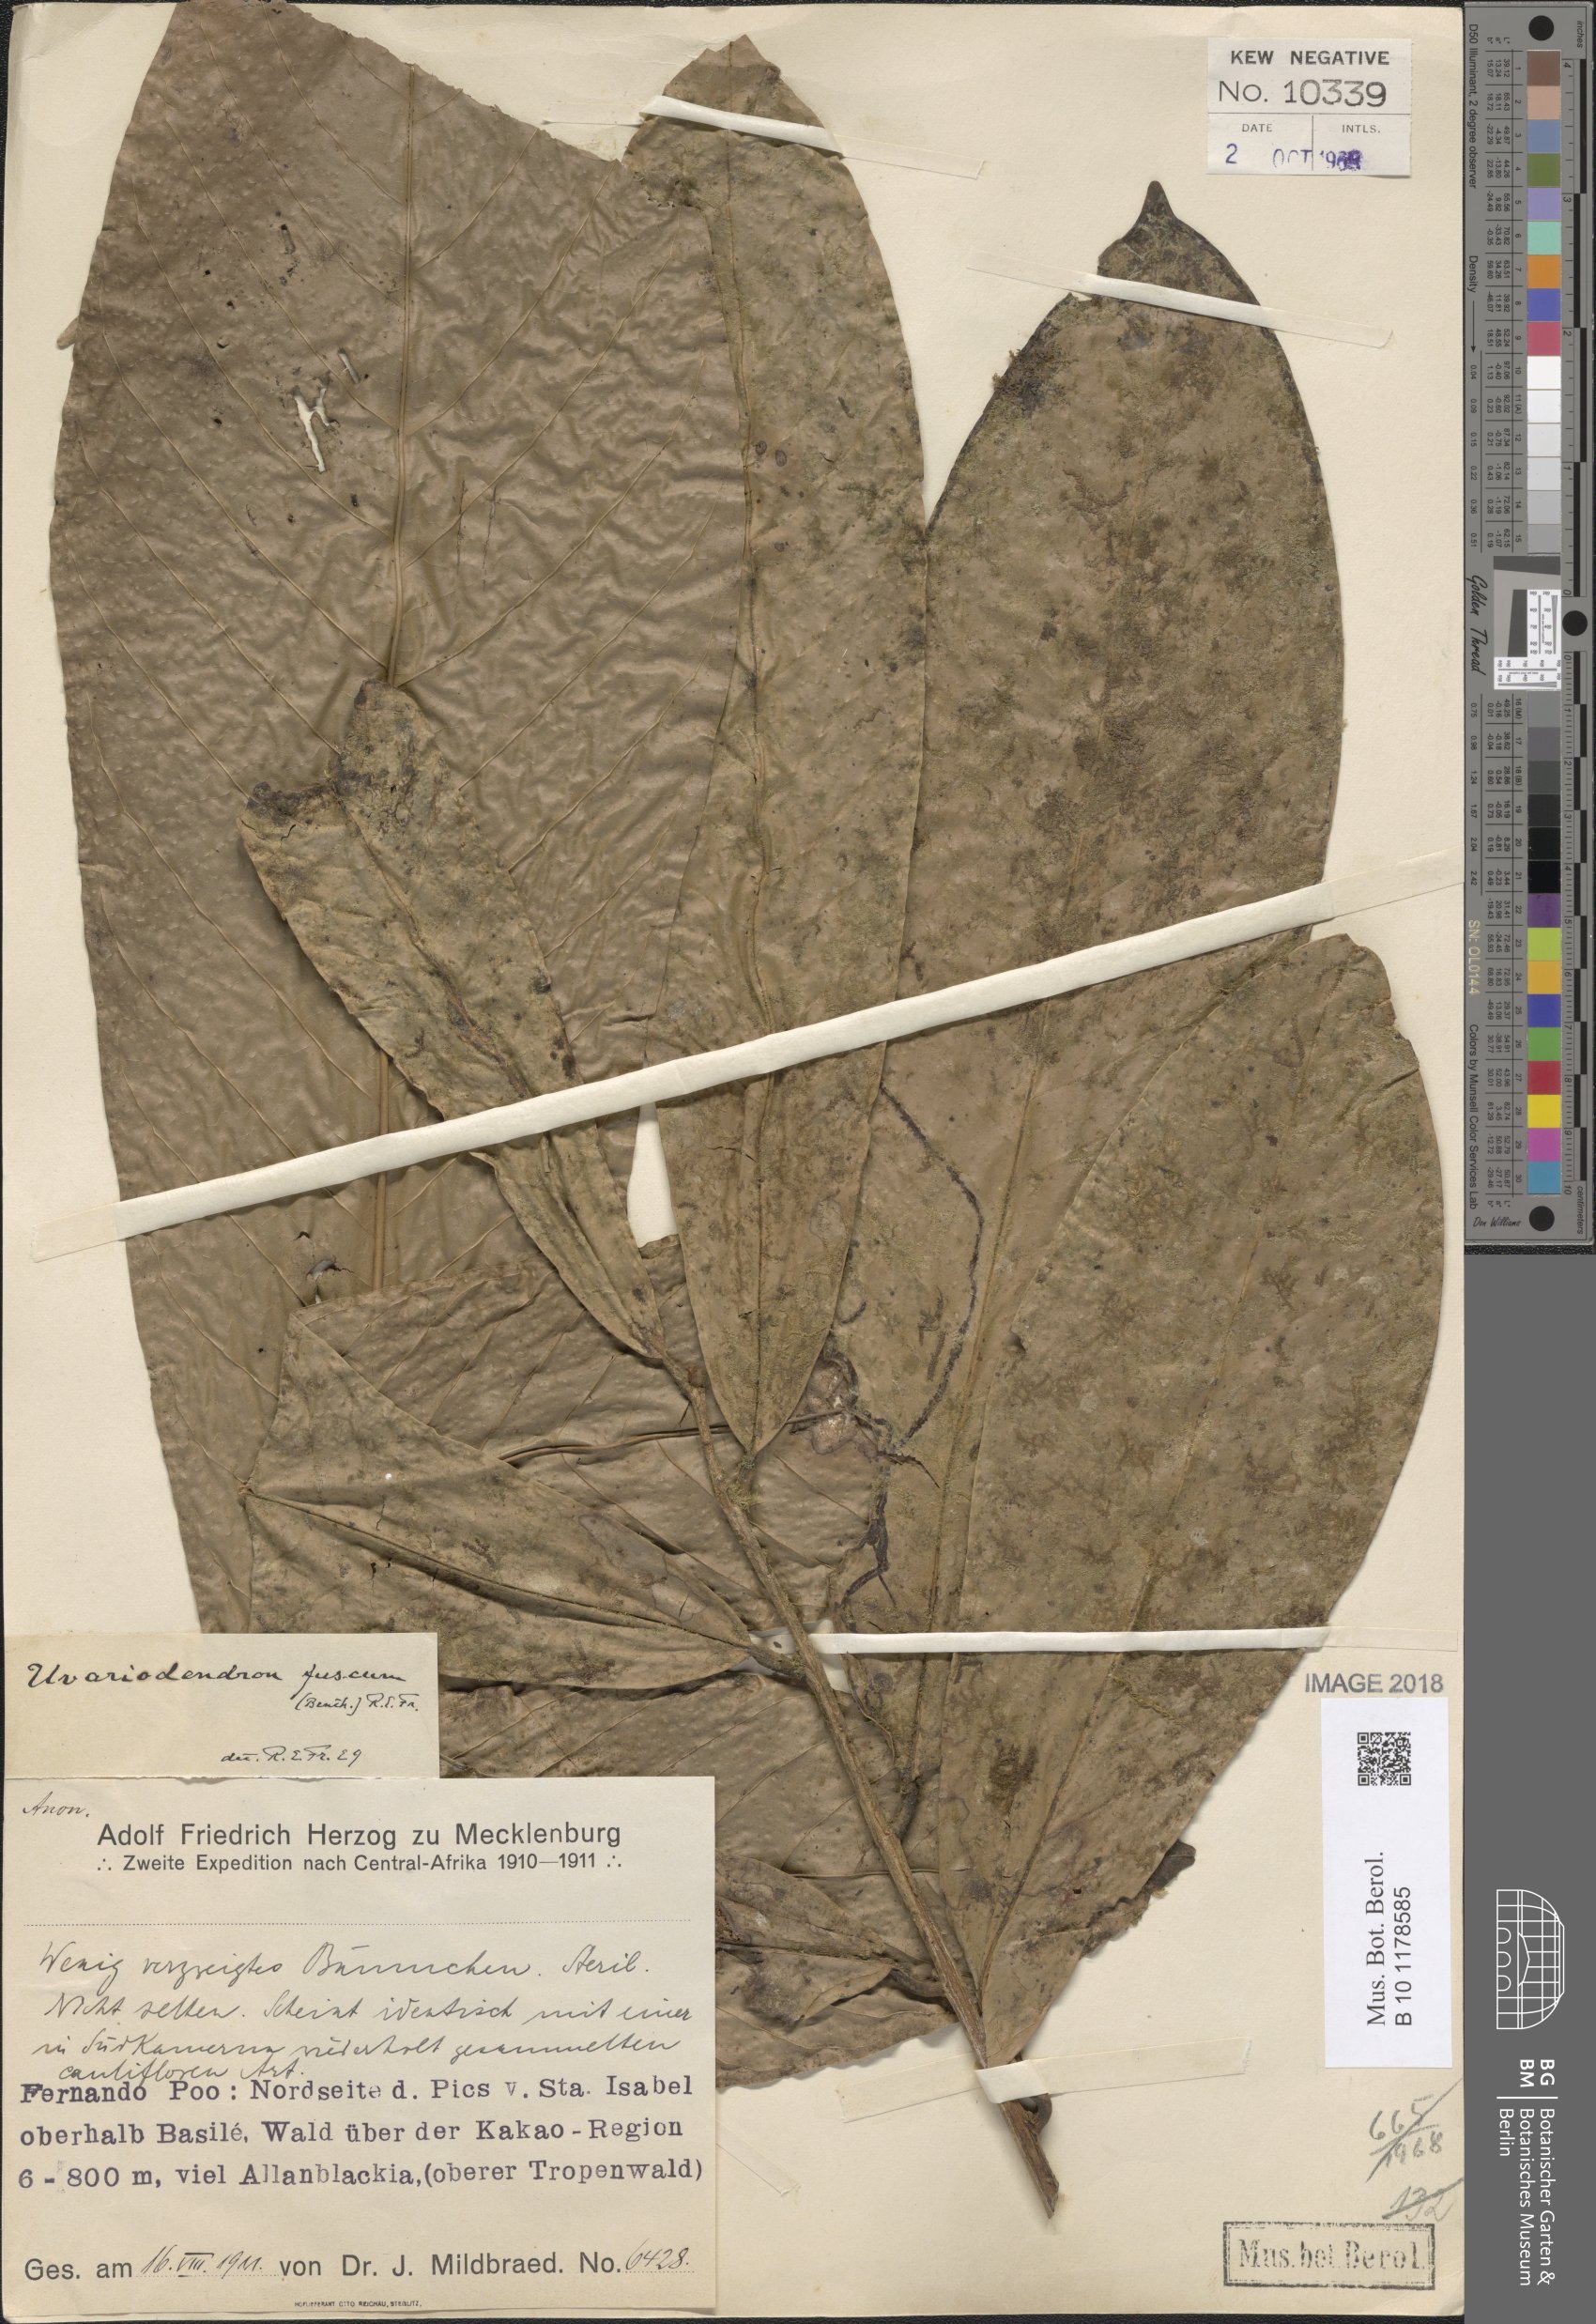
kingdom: Plantae
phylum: Tracheophyta
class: Magnoliopsida
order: Magnoliales
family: Annonaceae
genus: Uvariodendron
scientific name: Uvariodendron fuscum
